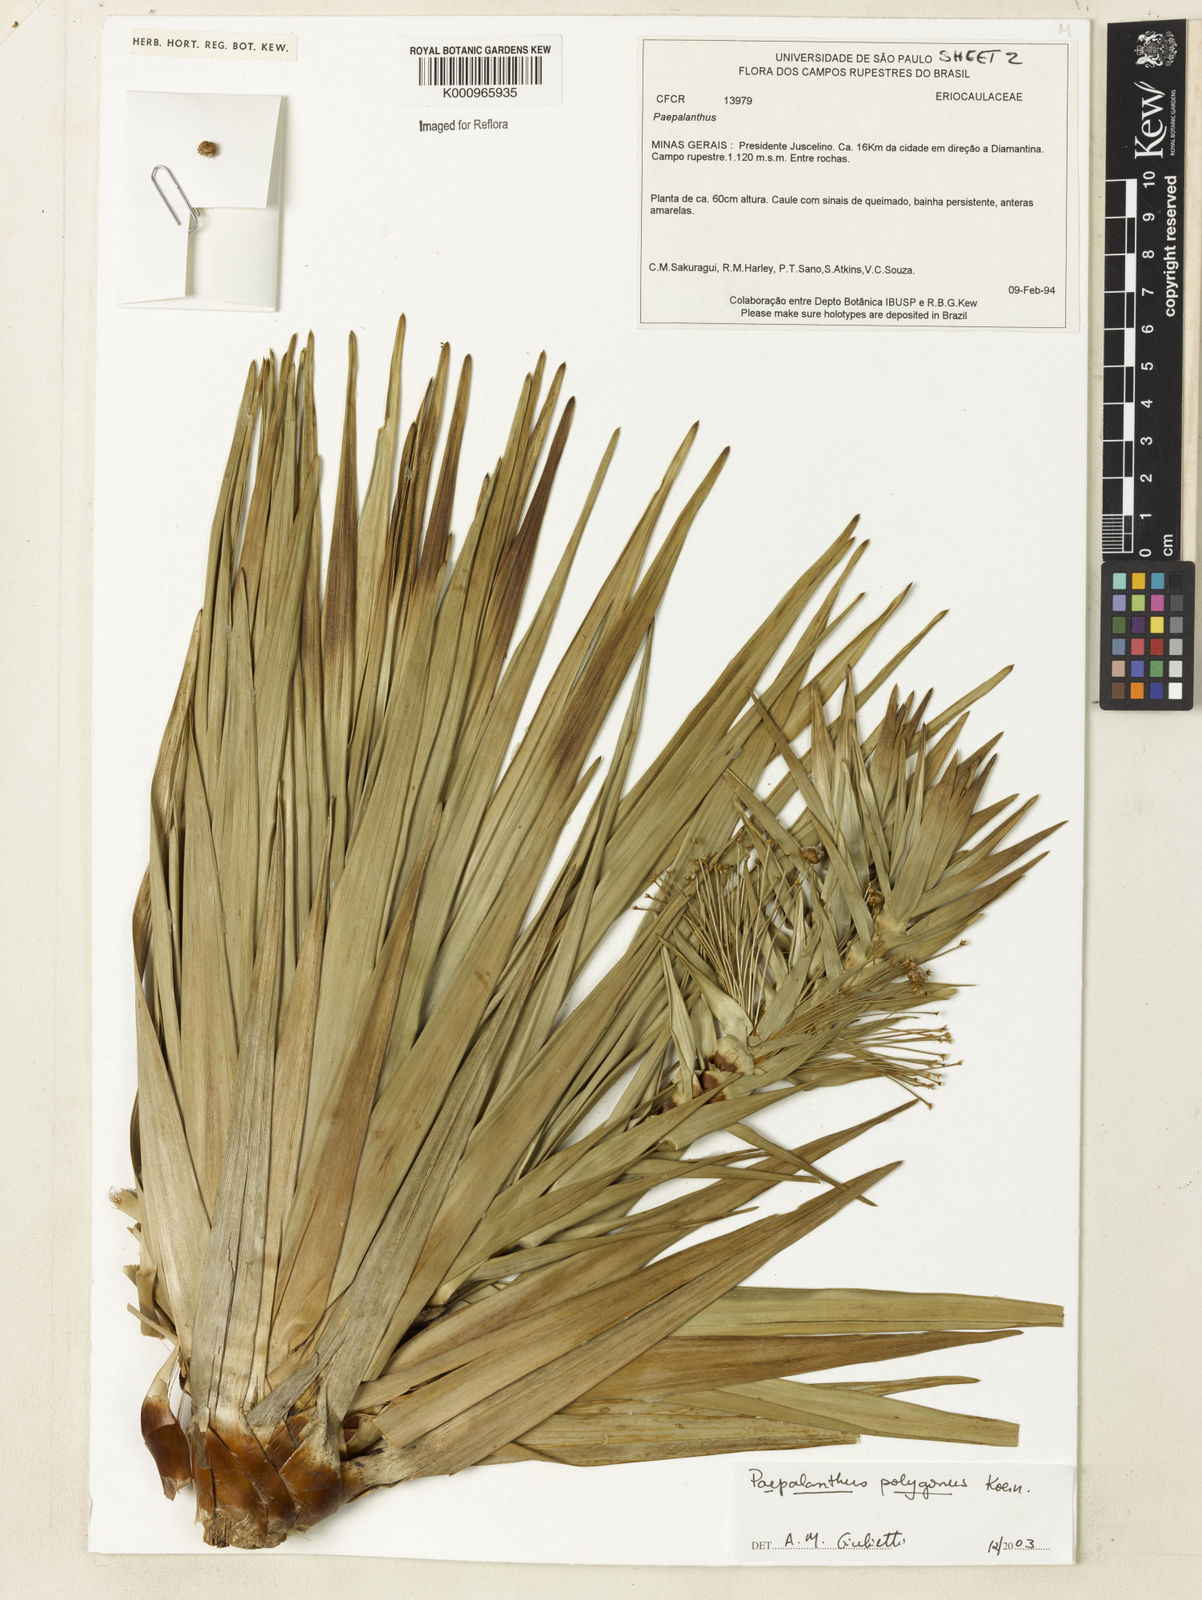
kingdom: Plantae
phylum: Tracheophyta
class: Liliopsida
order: Poales
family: Eriocaulaceae
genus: Paepalanthus
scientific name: Paepalanthus
